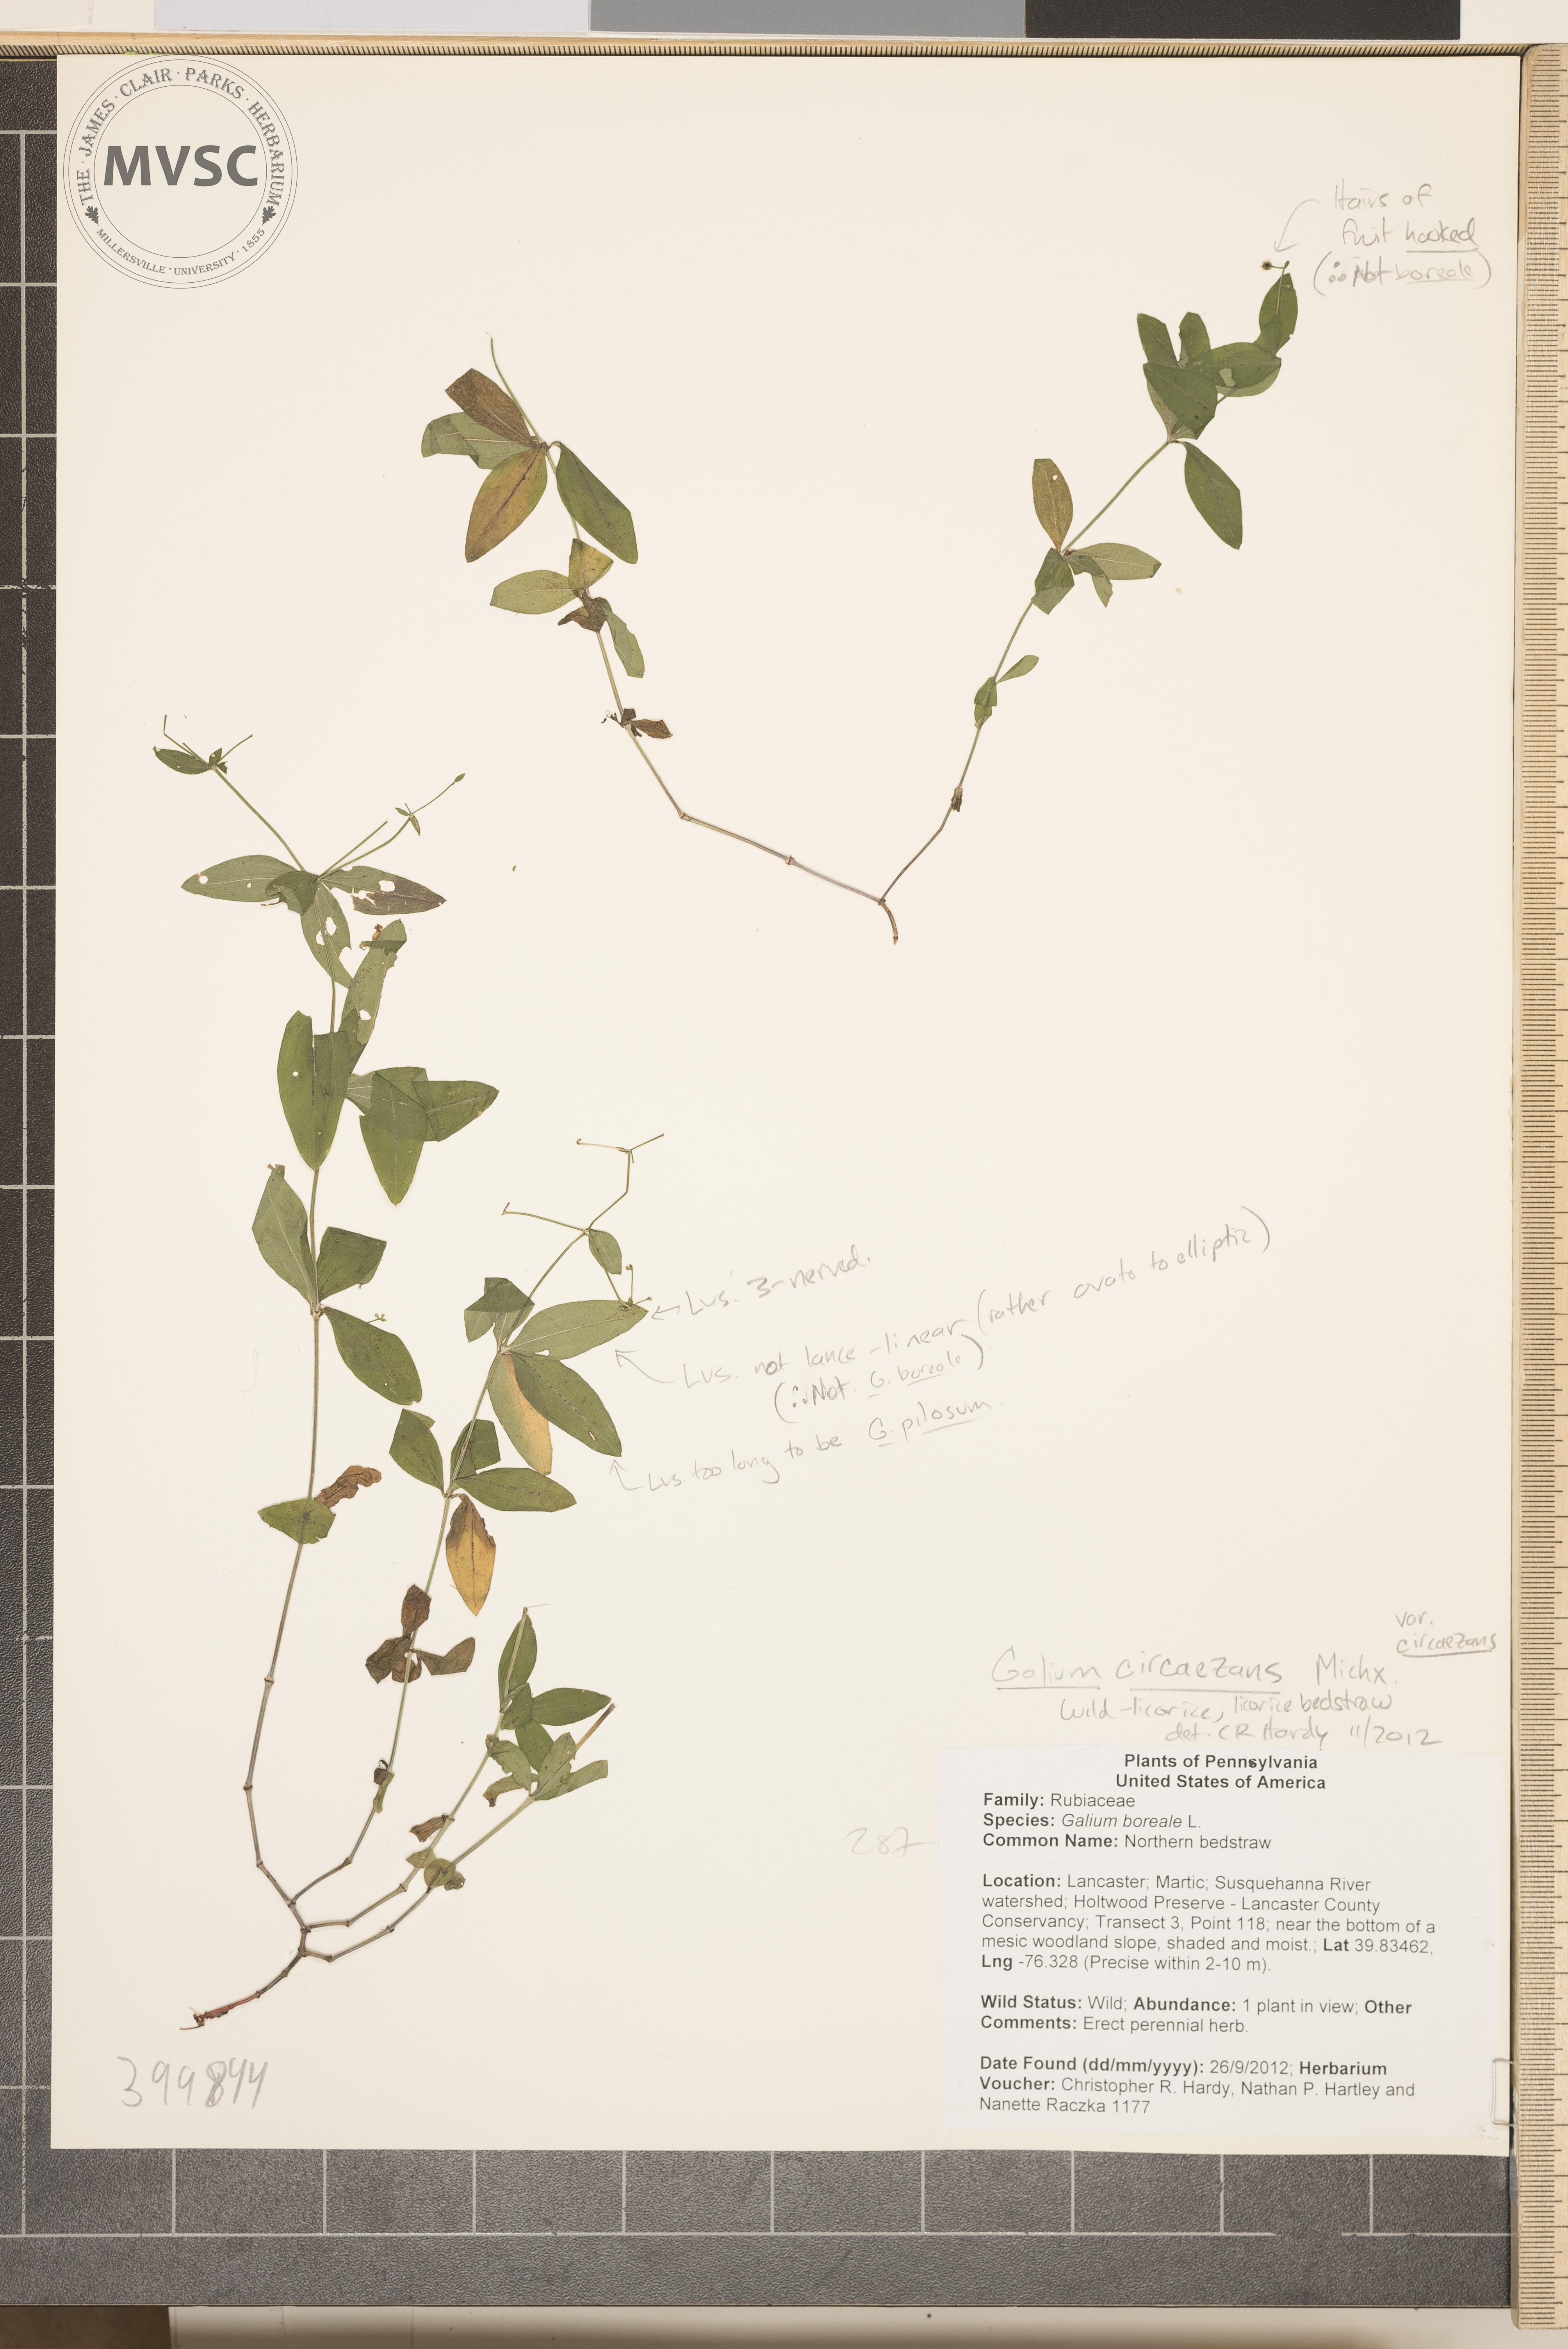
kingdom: Plantae
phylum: Tracheophyta
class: Magnoliopsida
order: Gentianales
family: Rubiaceae
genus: Galium
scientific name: Galium circaezans
